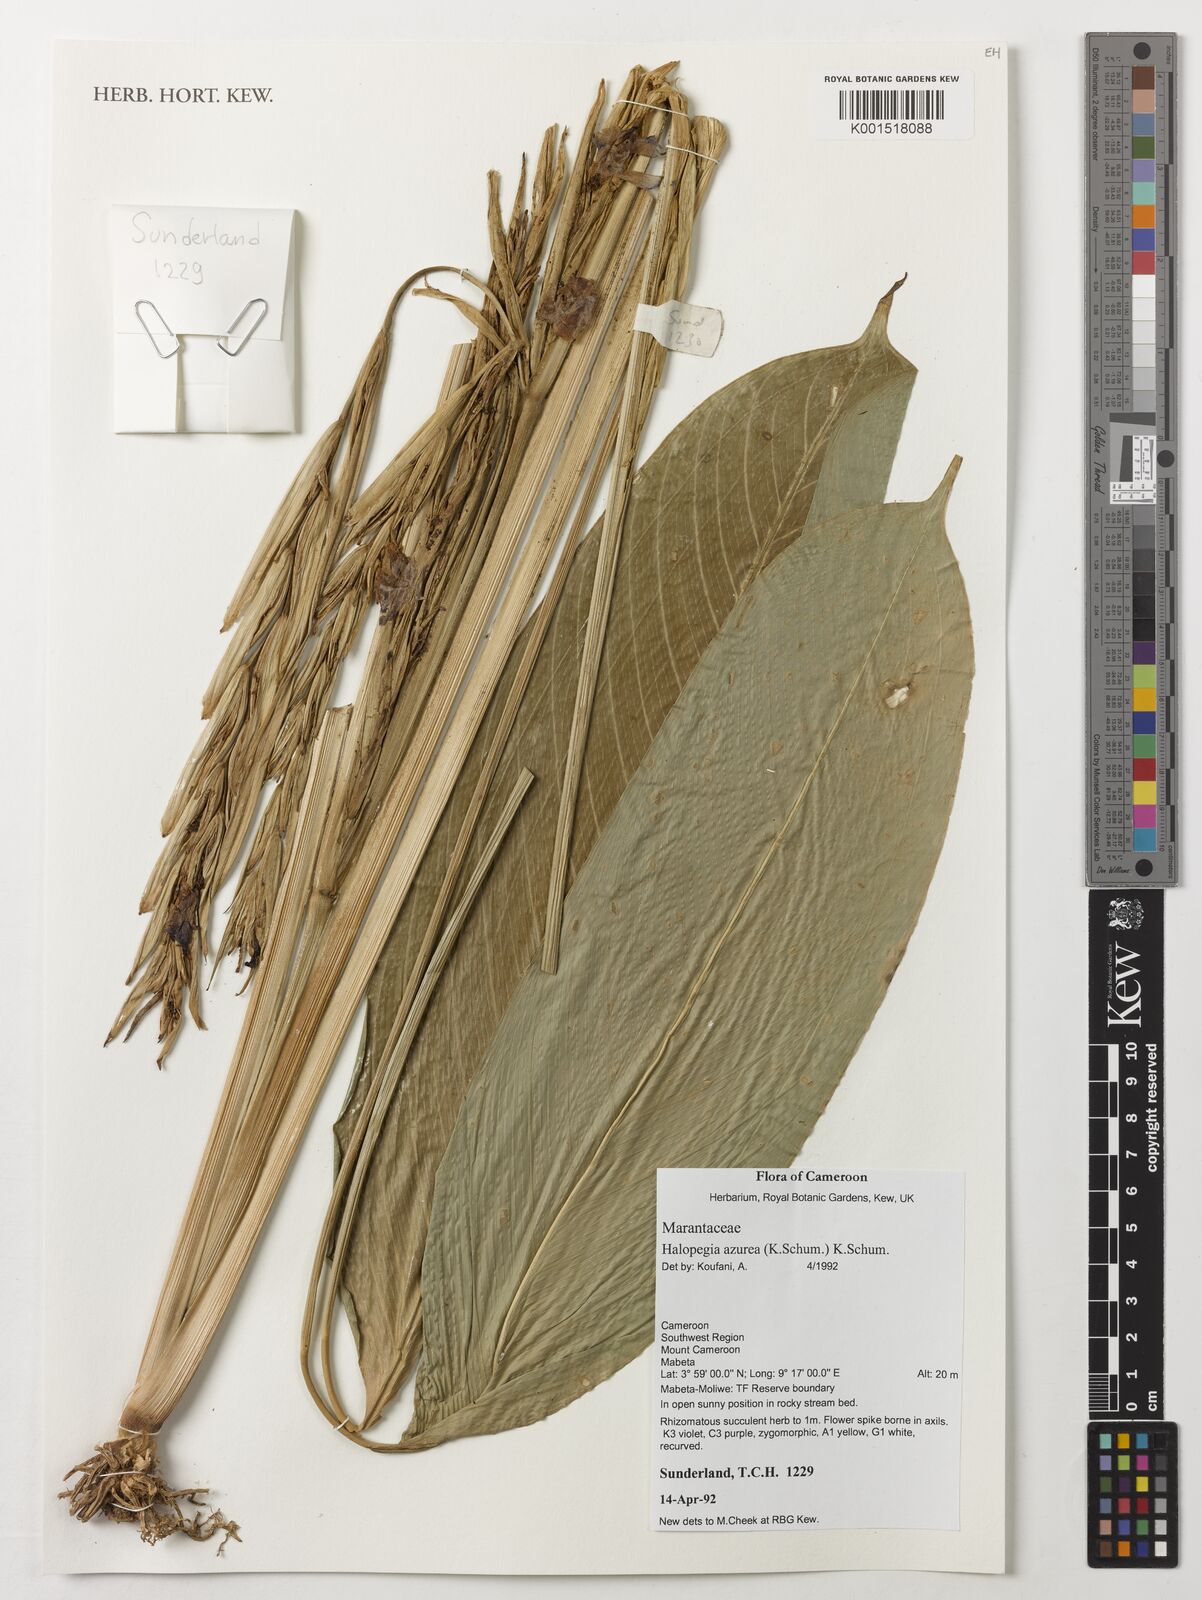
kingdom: Plantae
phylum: Tracheophyta
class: Liliopsida
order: Zingiberales
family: Marantaceae
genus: Halopegia
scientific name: Halopegia azurea
